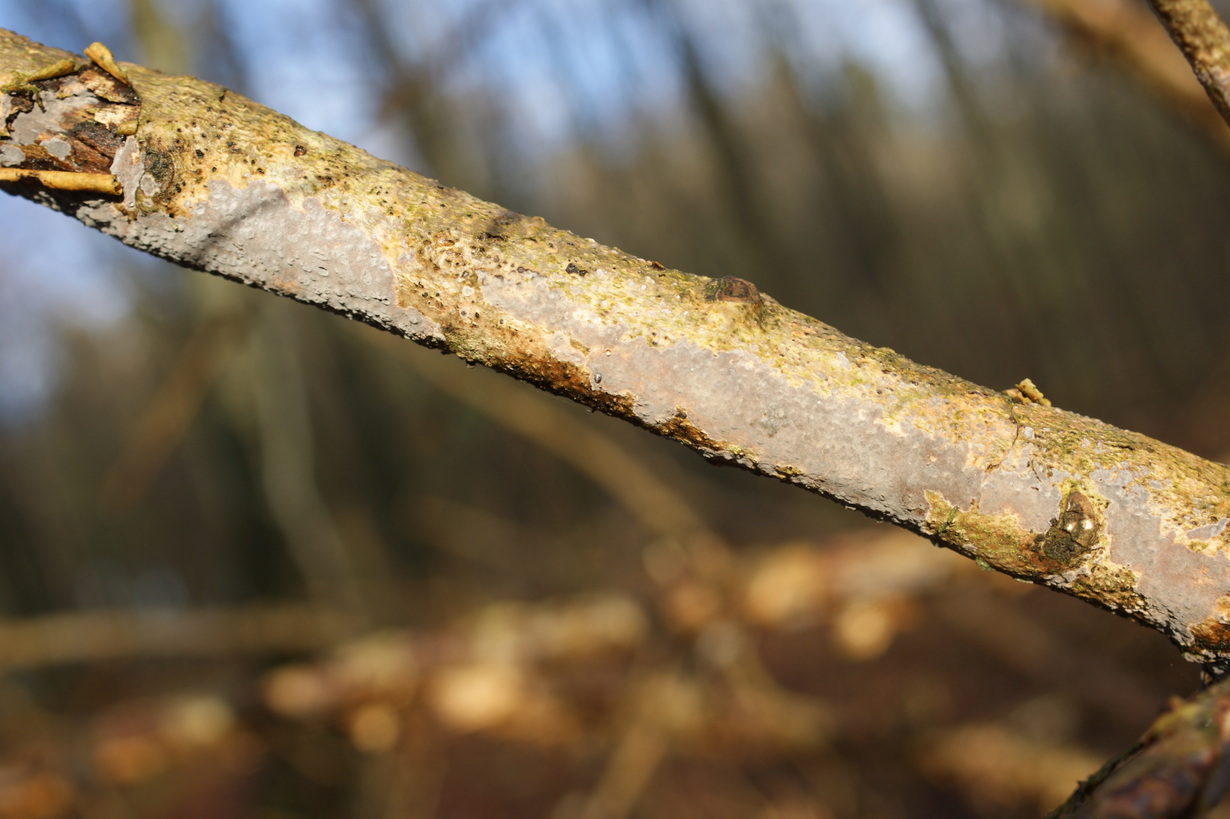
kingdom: Fungi
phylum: Basidiomycota
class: Agaricomycetes
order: Russulales
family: Peniophoraceae
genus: Peniophora
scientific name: Peniophora lycii
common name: grynet voksskind
